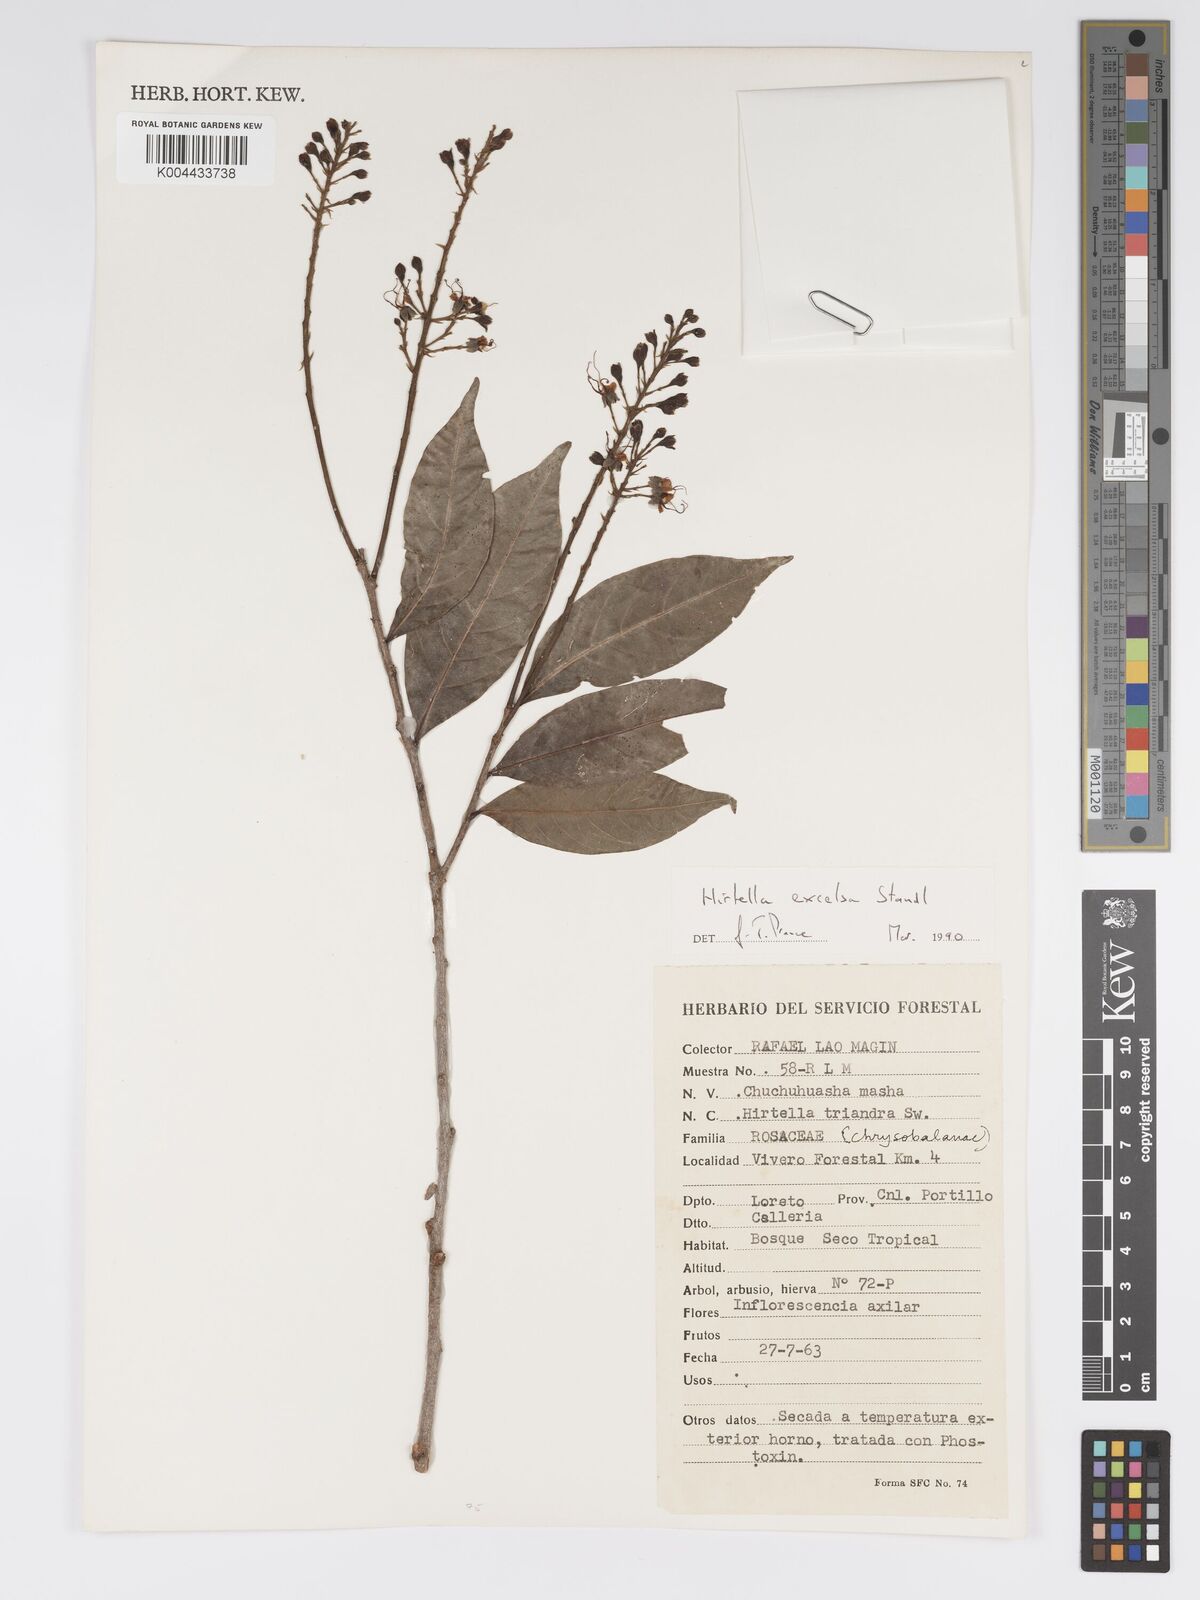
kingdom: Plantae
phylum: Tracheophyta
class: Magnoliopsida
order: Malpighiales
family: Chrysobalanaceae
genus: Hirtella
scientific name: Hirtella excelsa
